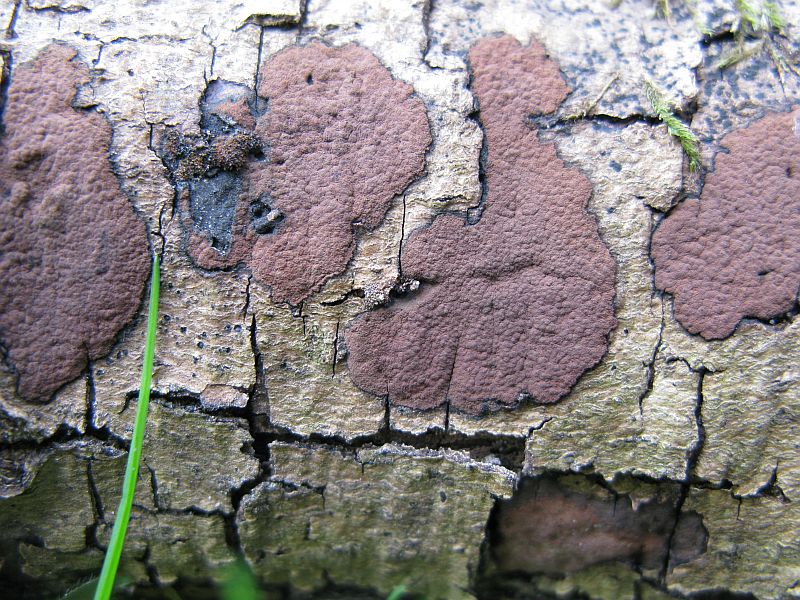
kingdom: Fungi
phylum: Ascomycota
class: Sordariomycetes
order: Xylariales
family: Hypoxylaceae
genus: Hypoxylon
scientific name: Hypoxylon petriniae
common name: nedsænket kulbær
